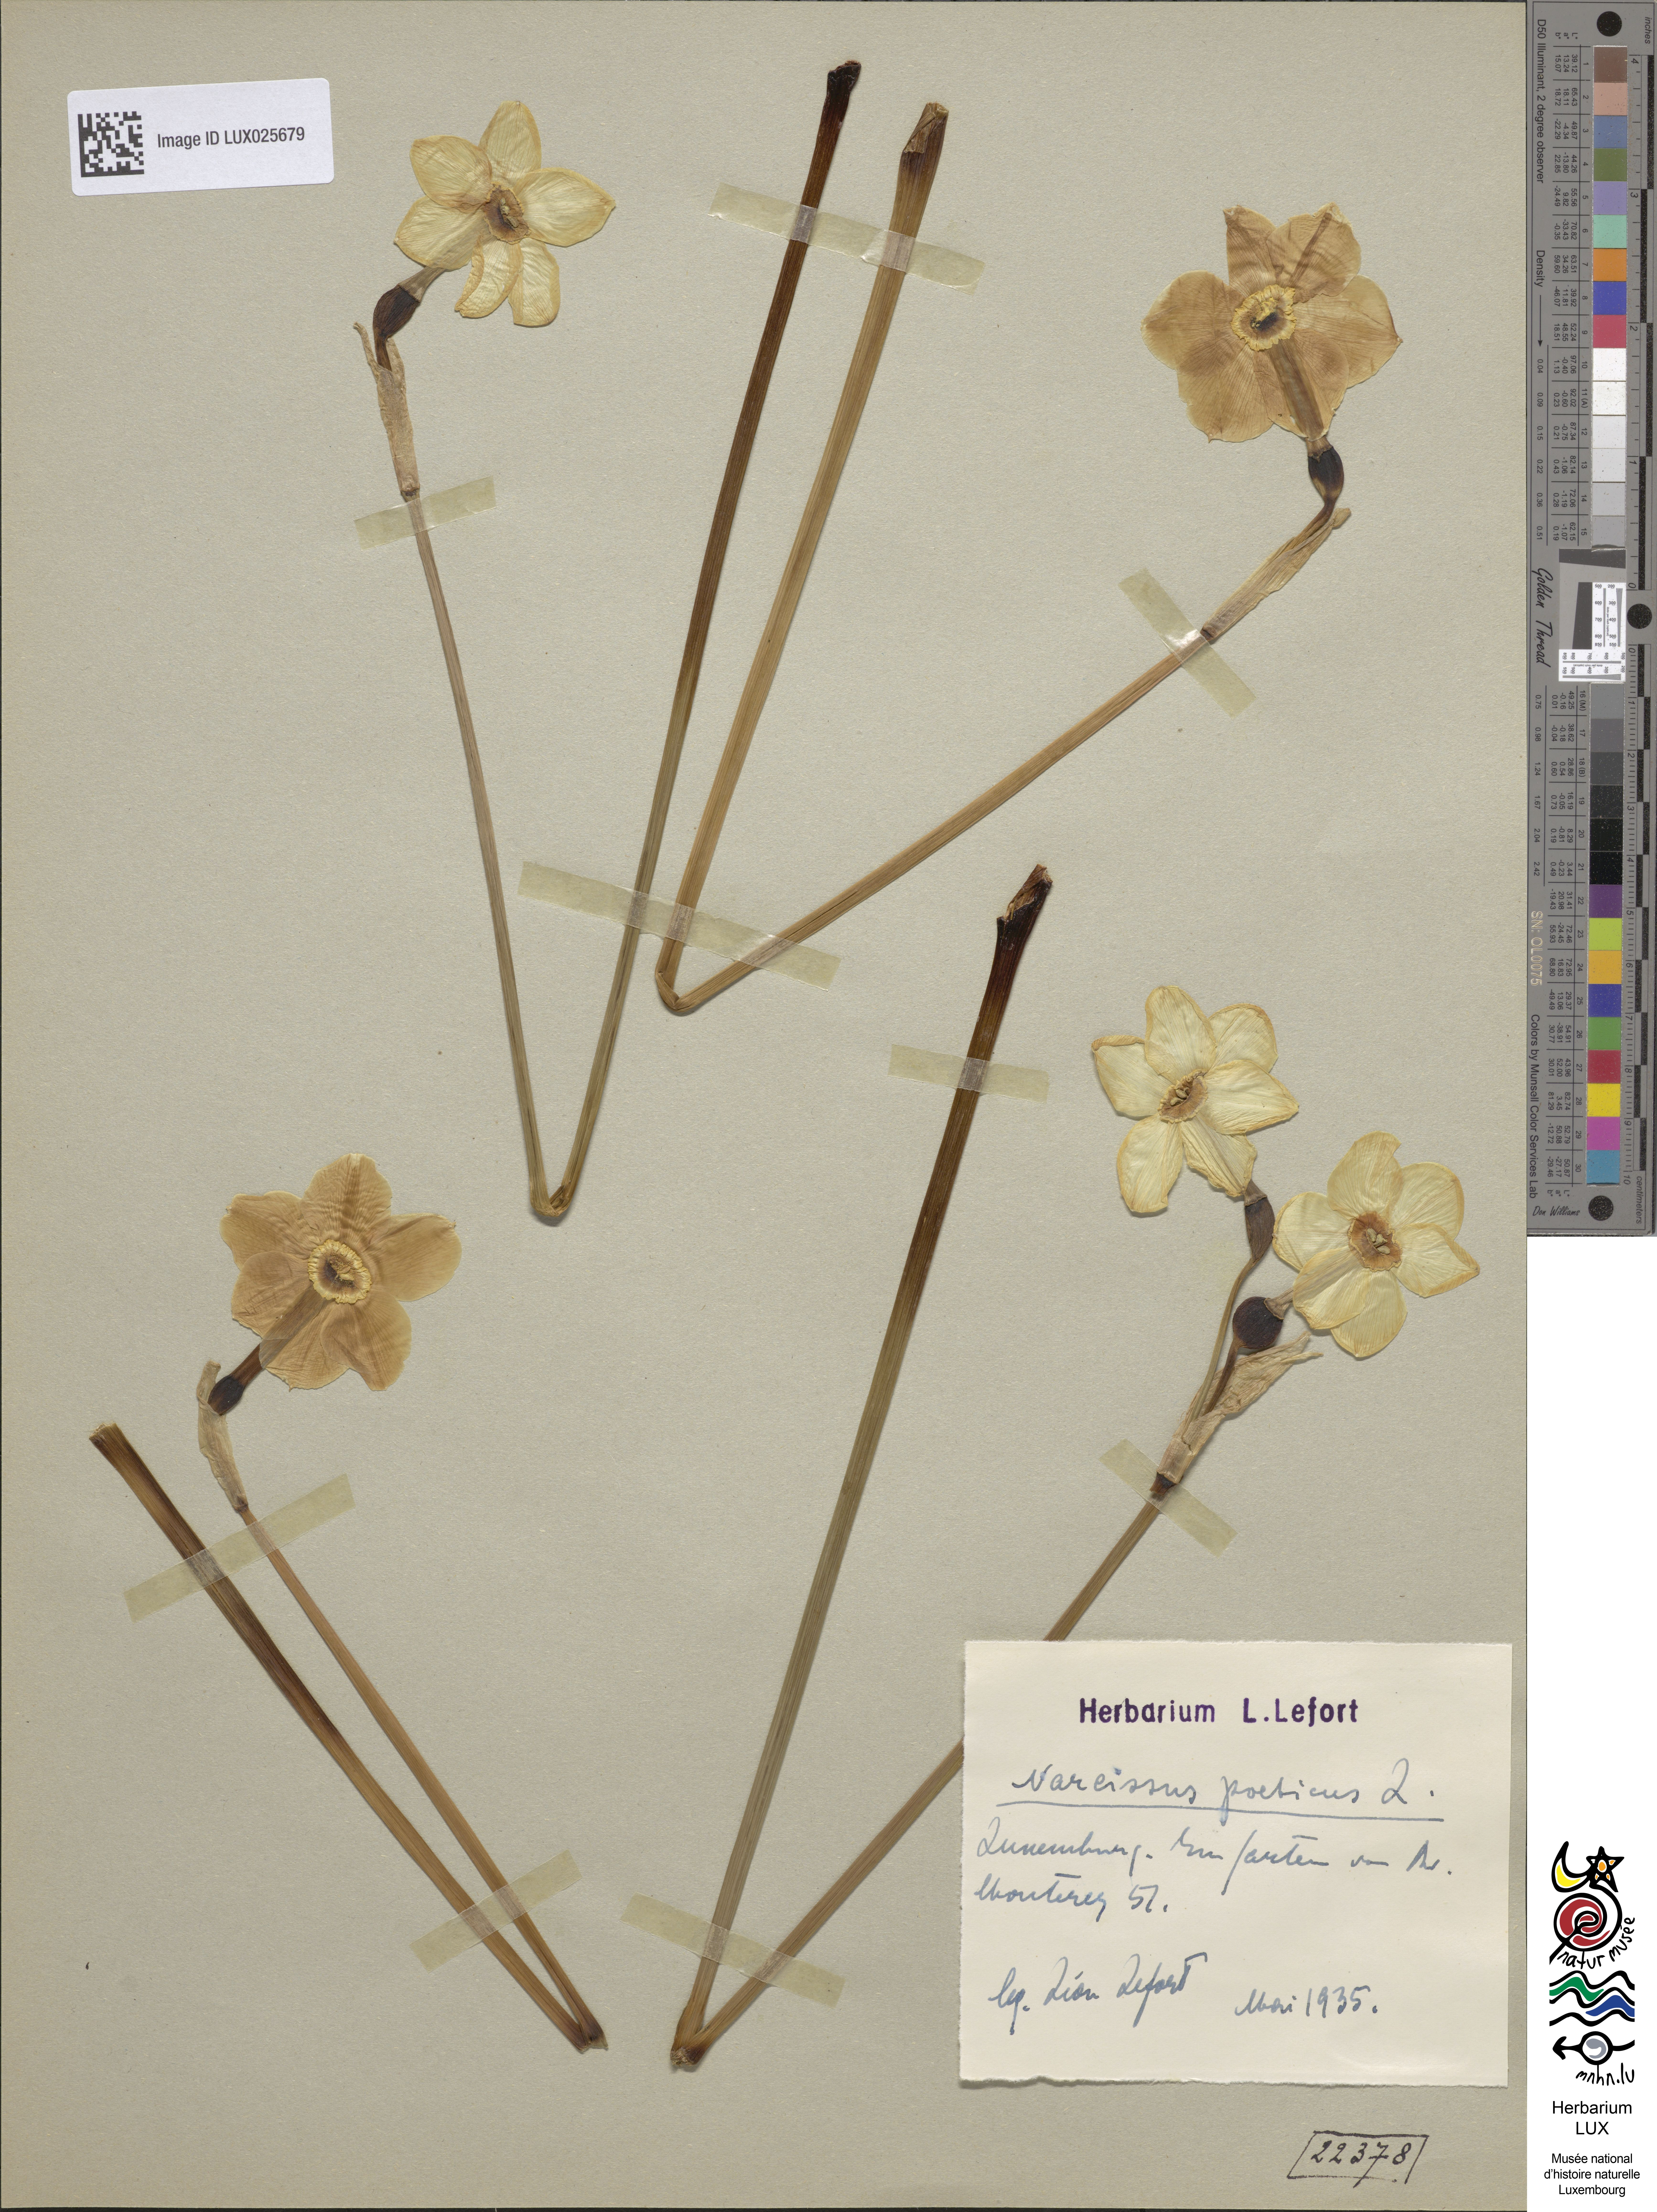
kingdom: Plantae
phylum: Tracheophyta
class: Liliopsida
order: Asparagales
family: Amaryllidaceae
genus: Narcissus
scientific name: Narcissus poeticus
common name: Pheasant's-eye daffodil
